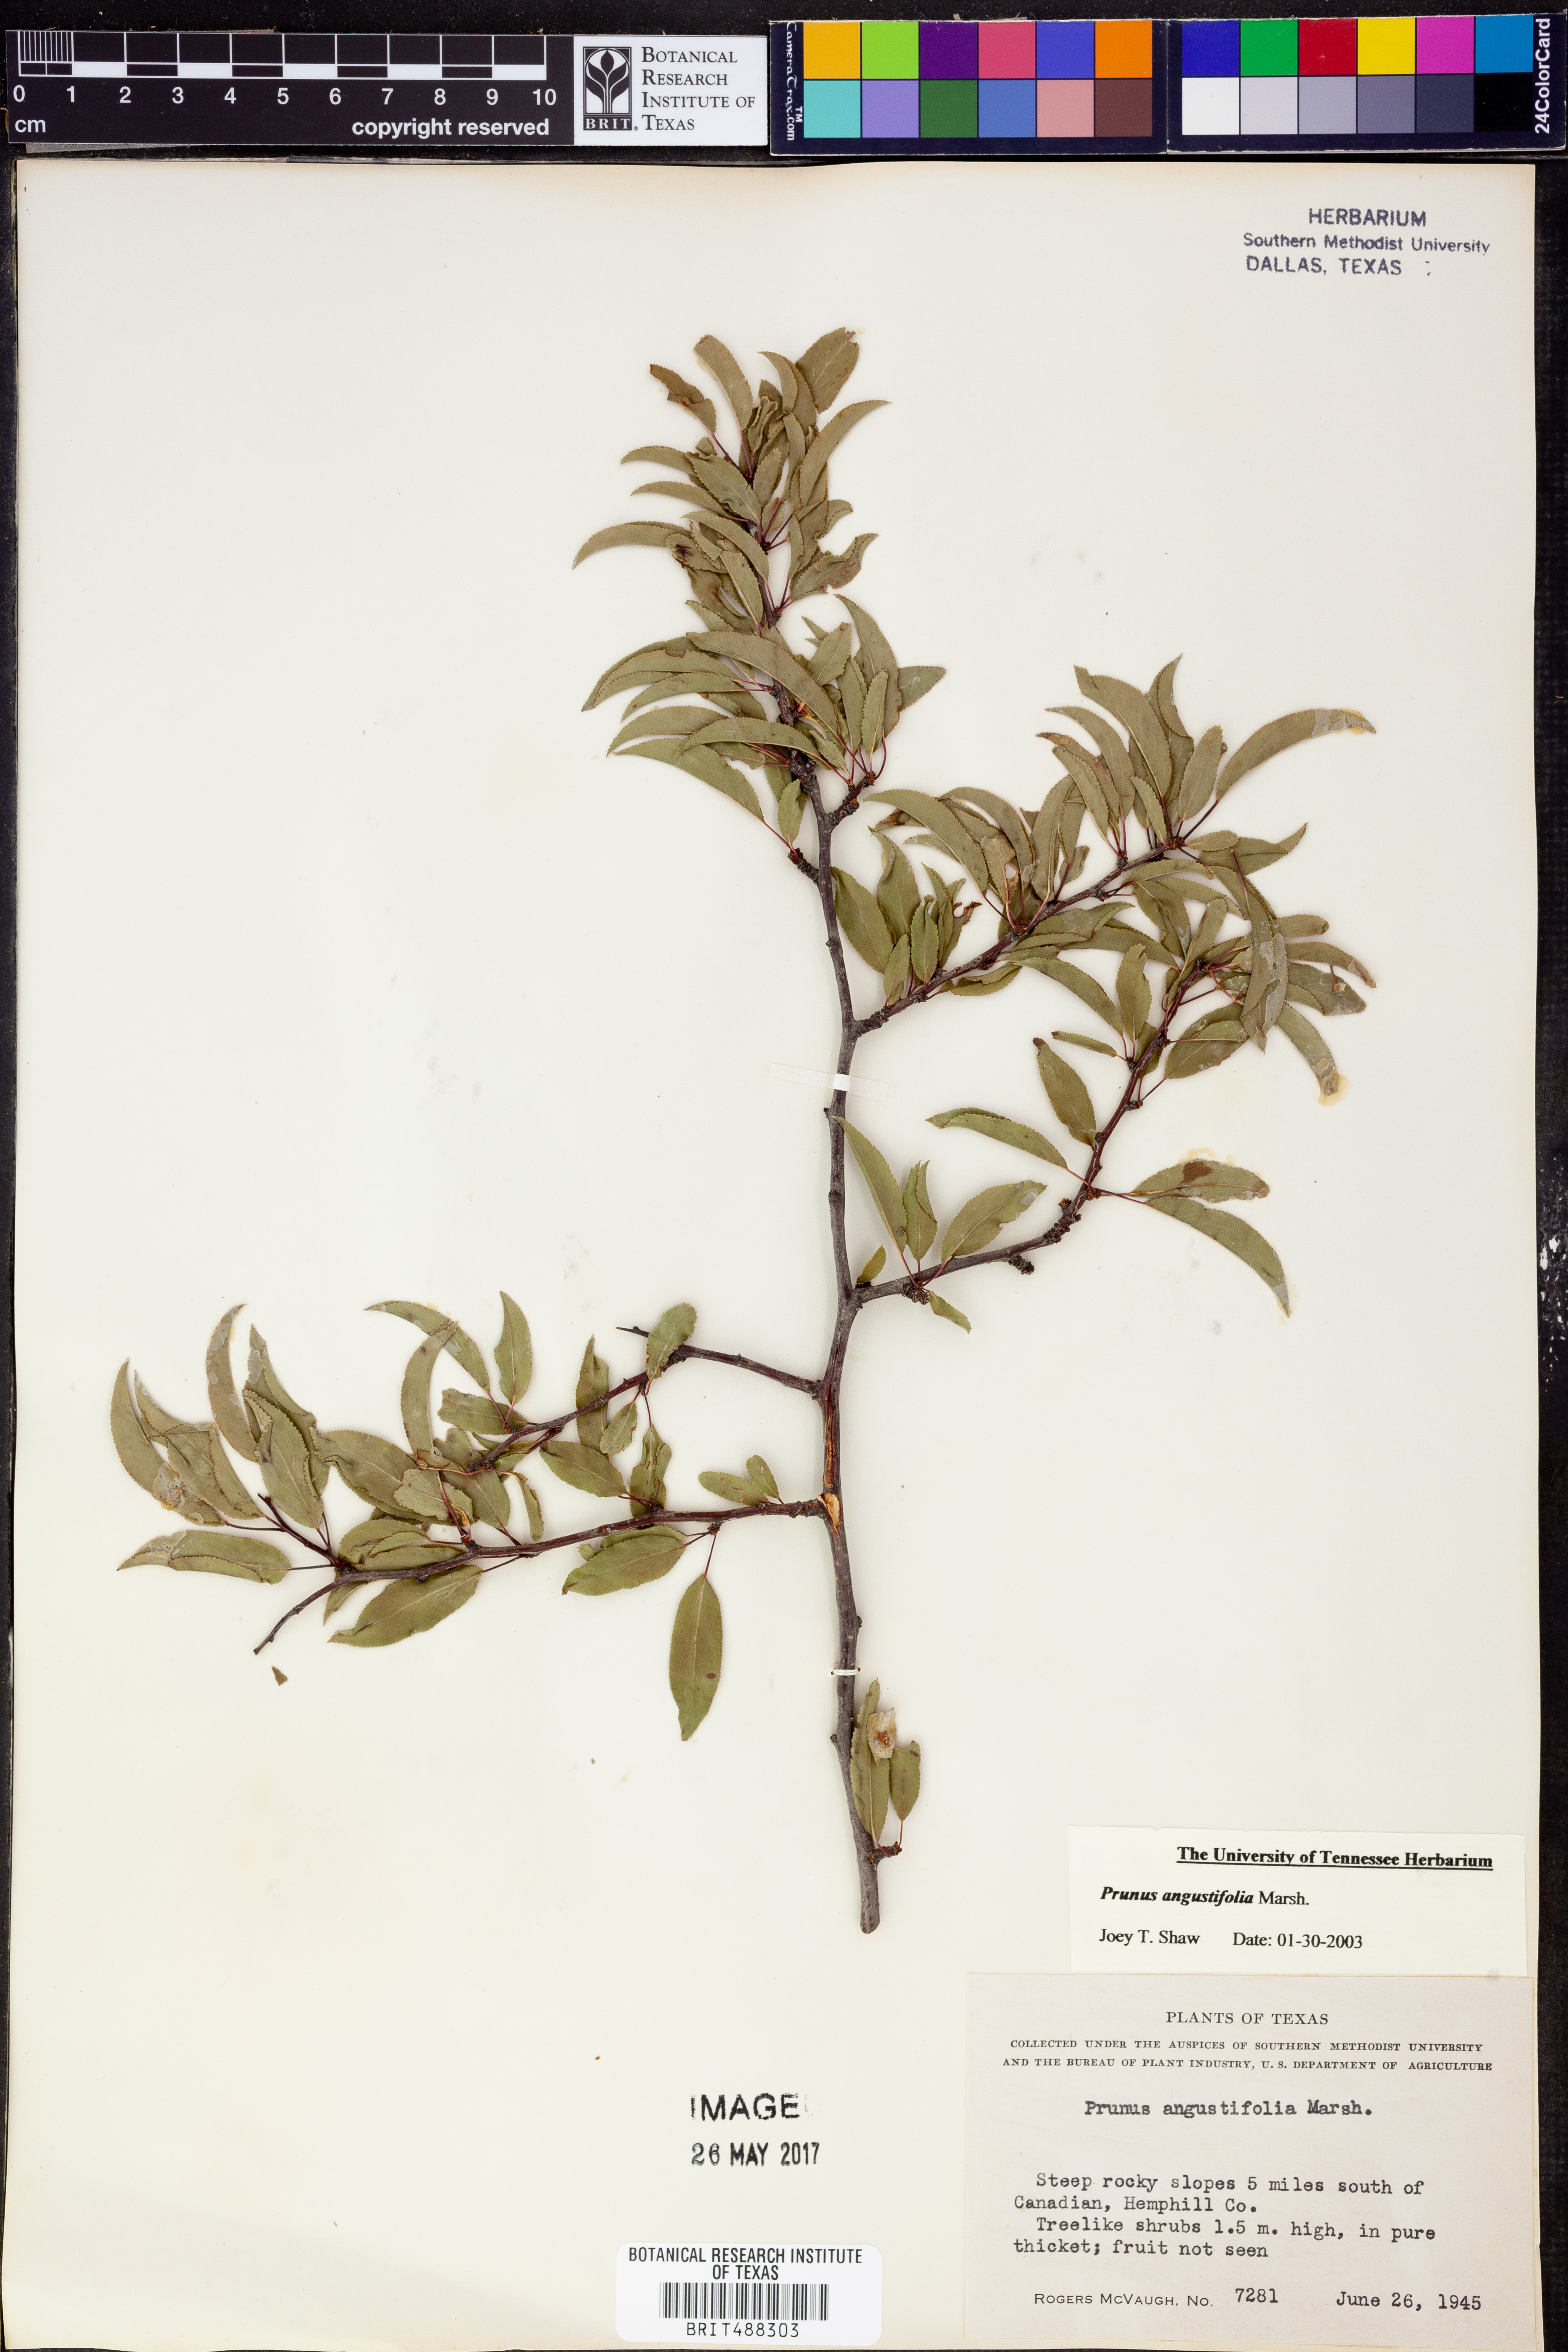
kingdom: Plantae
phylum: Tracheophyta
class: Magnoliopsida
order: Rosales
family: Rosaceae
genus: Prunus
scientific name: Prunus angustifolia
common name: Cherokee plum
